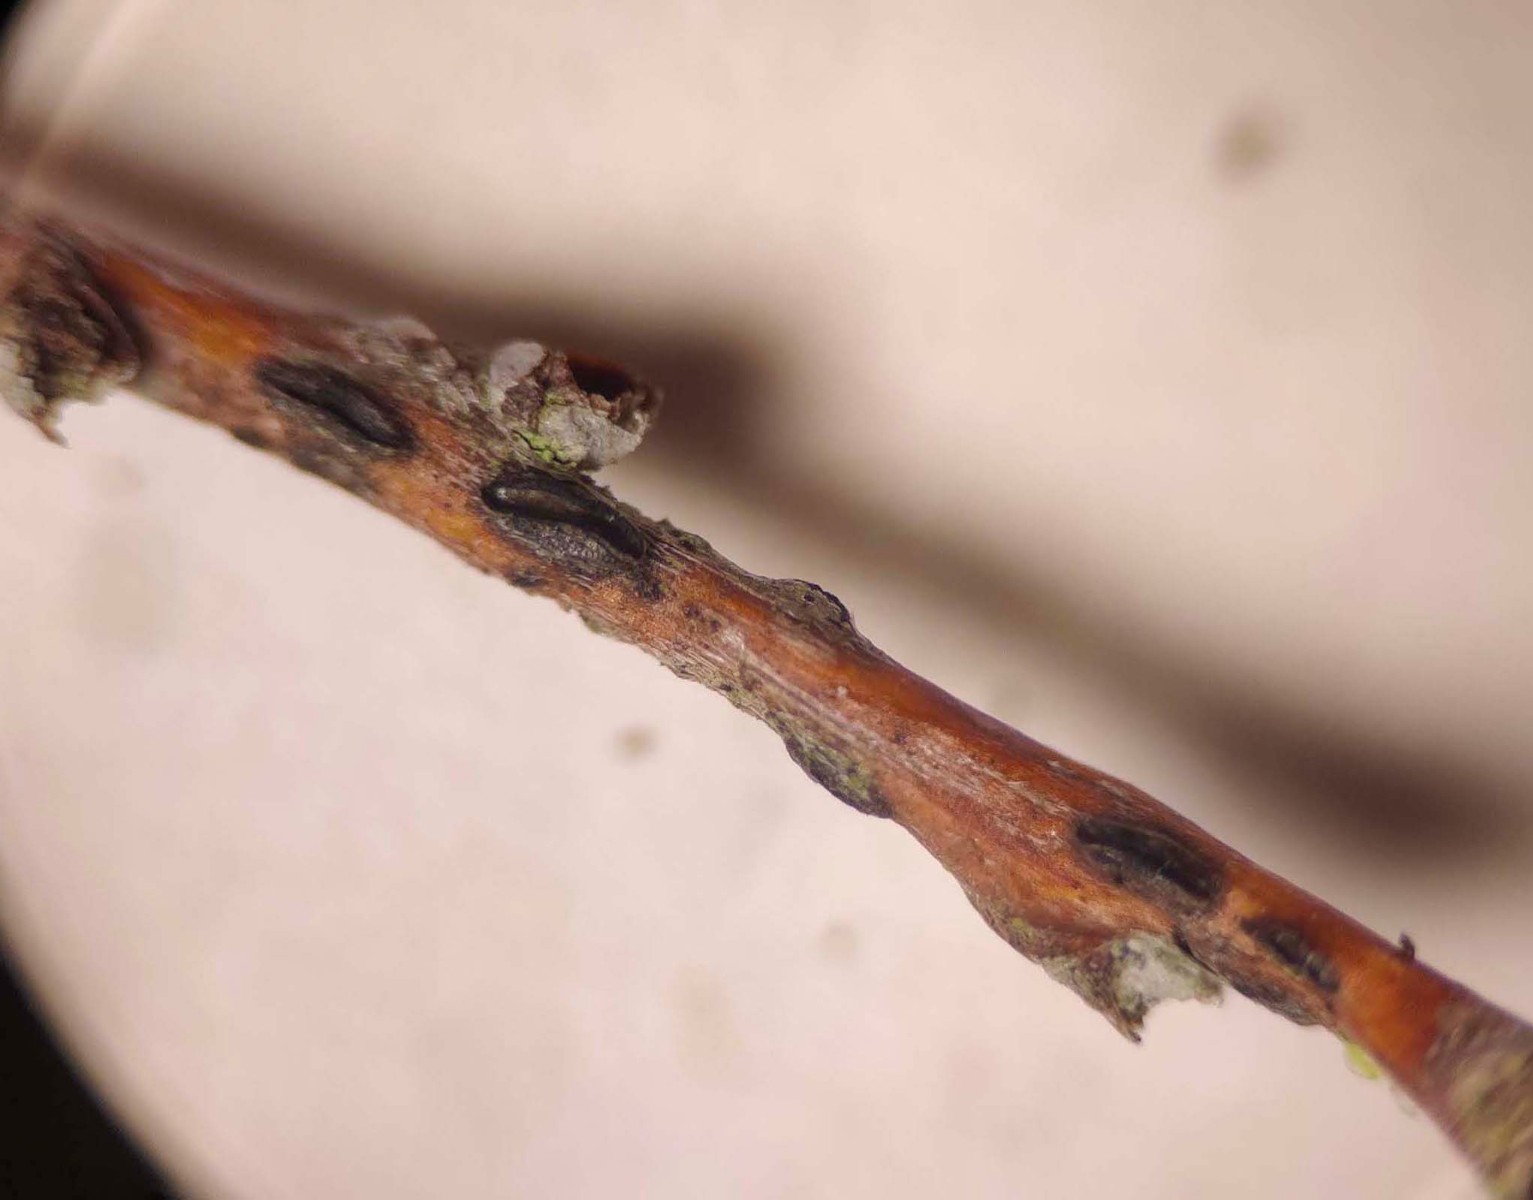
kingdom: Fungi
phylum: Ascomycota
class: Leotiomycetes
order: Rhytismatales
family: Rhytismataceae
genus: Sporomega
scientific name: Sporomega degenerans
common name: bølle-sprækkeskive
